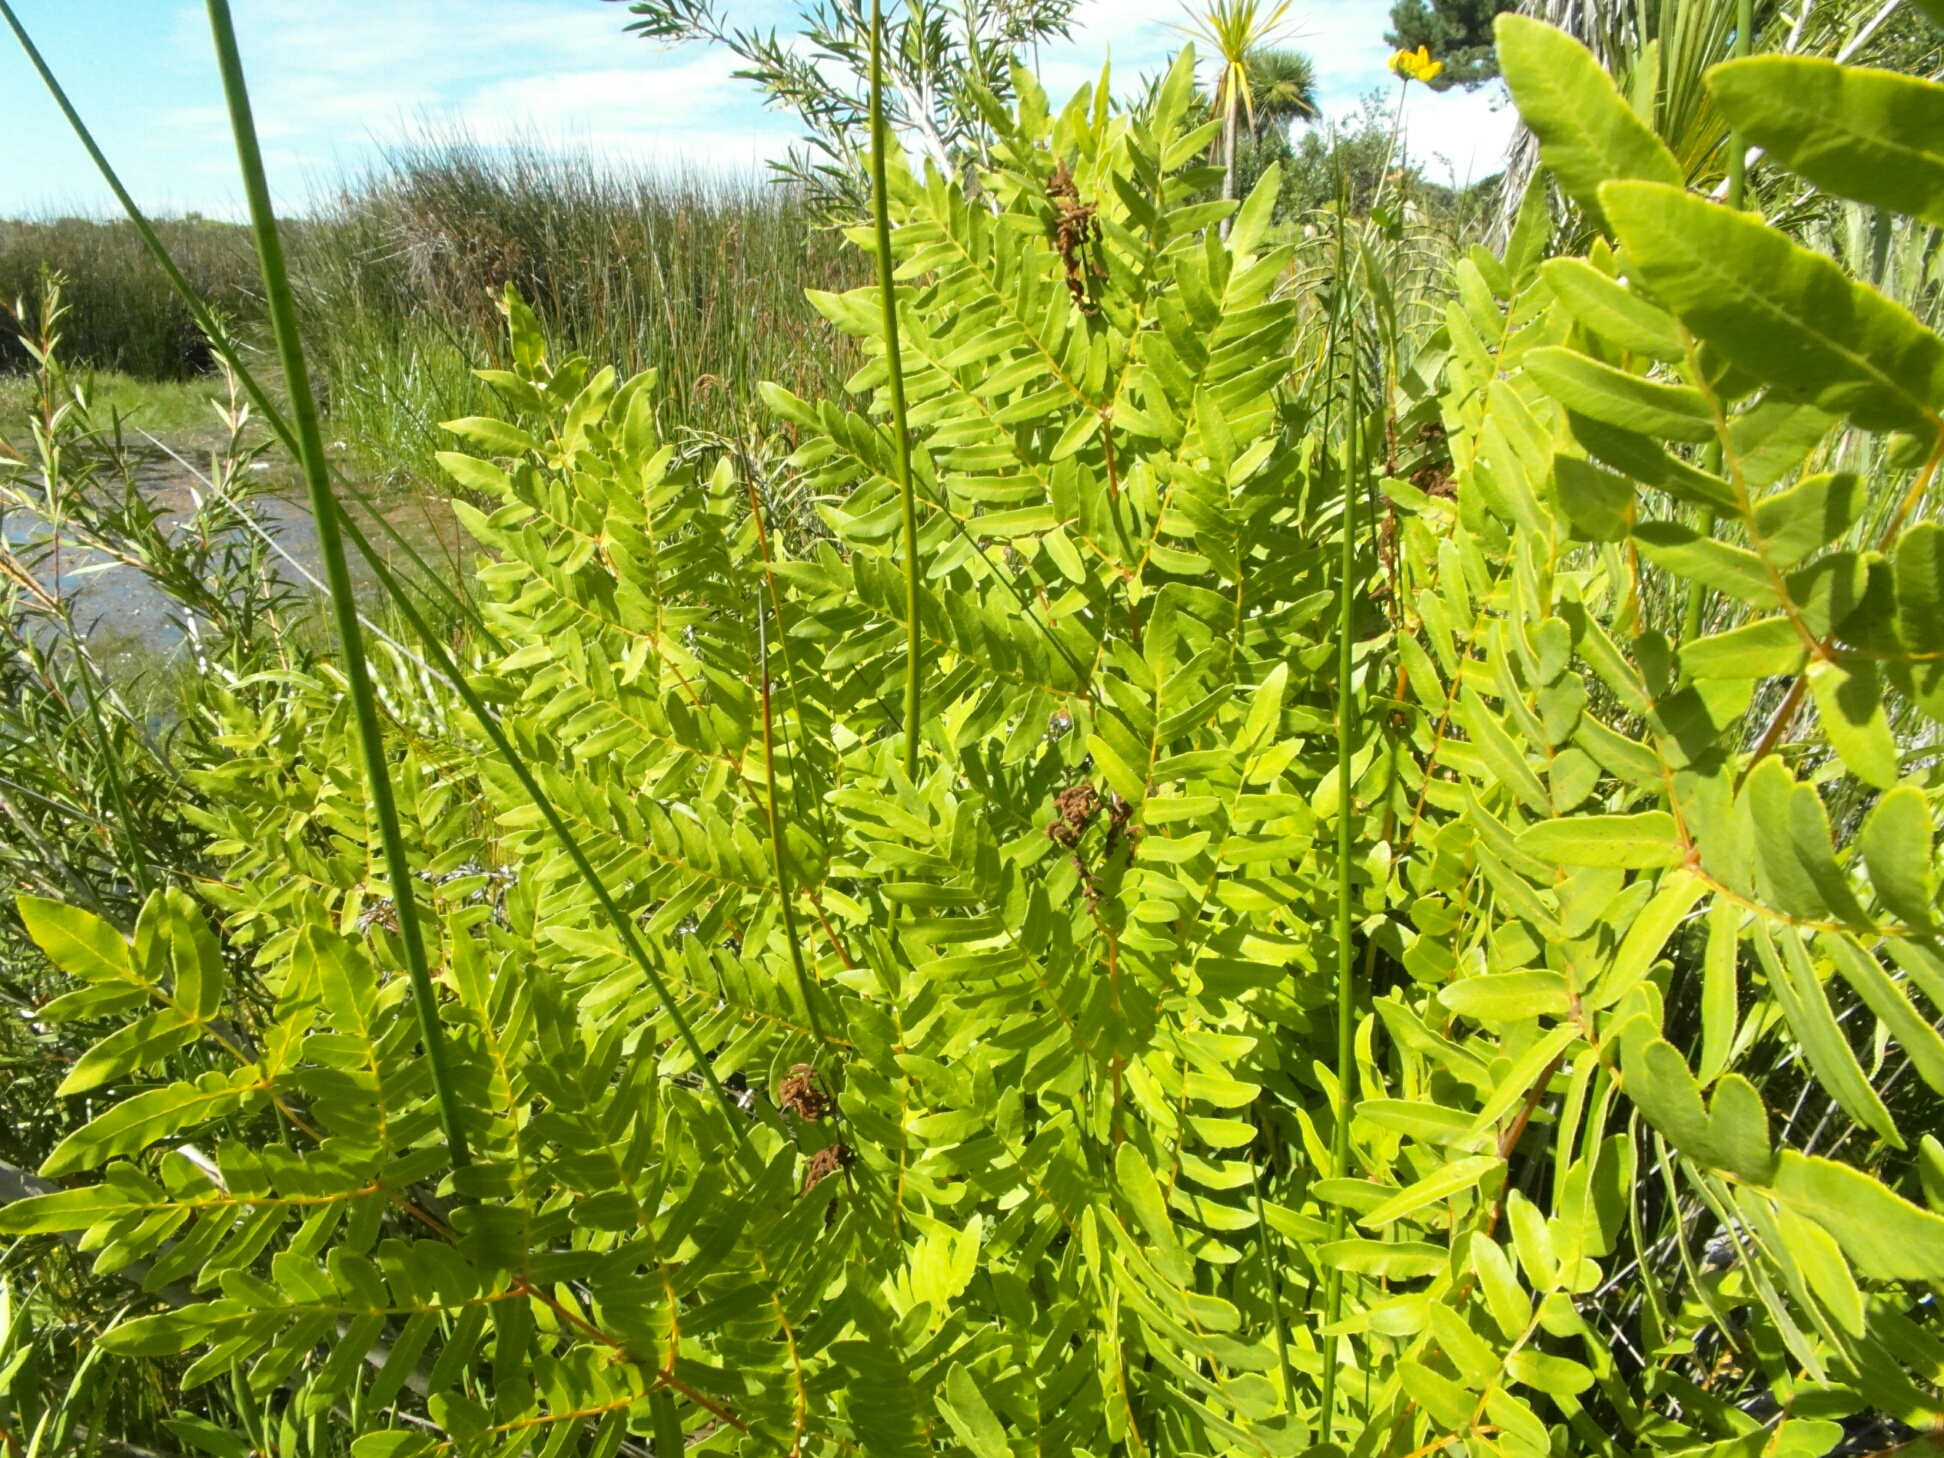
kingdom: Plantae
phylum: Tracheophyta
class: Polypodiopsida
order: Osmundales
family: Osmundaceae
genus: Osmunda
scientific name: Osmunda regalis
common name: Royal fern
